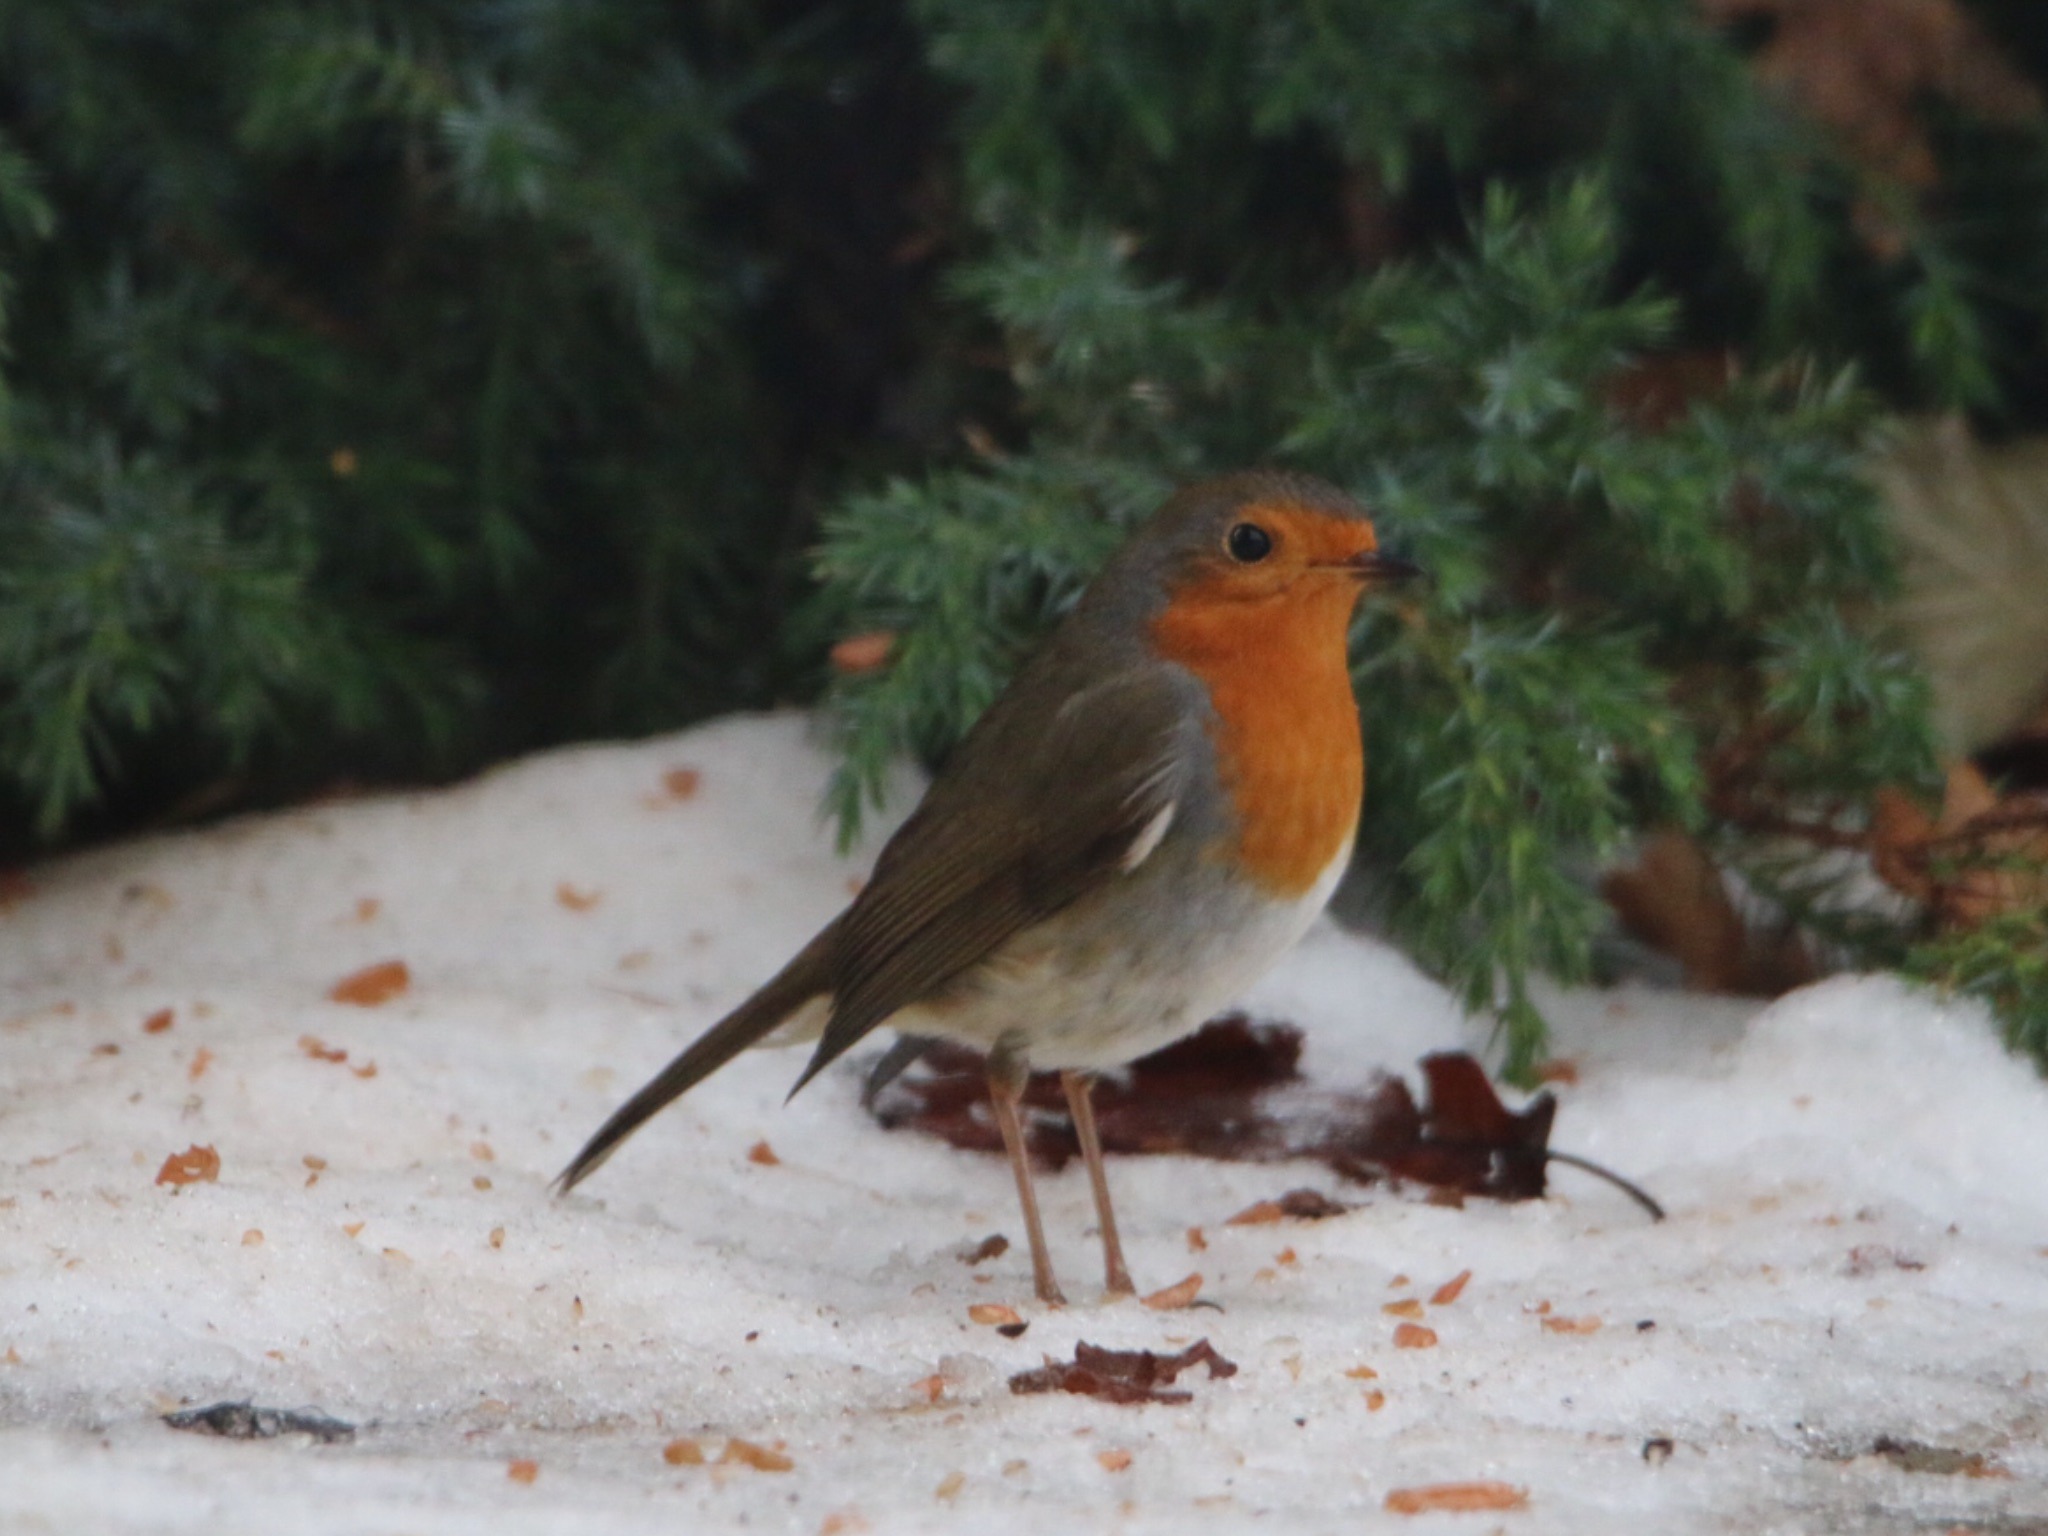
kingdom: Animalia
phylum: Chordata
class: Aves
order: Passeriformes
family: Muscicapidae
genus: Erithacus
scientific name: Erithacus rubecula
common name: Rødhals/rødkælk
